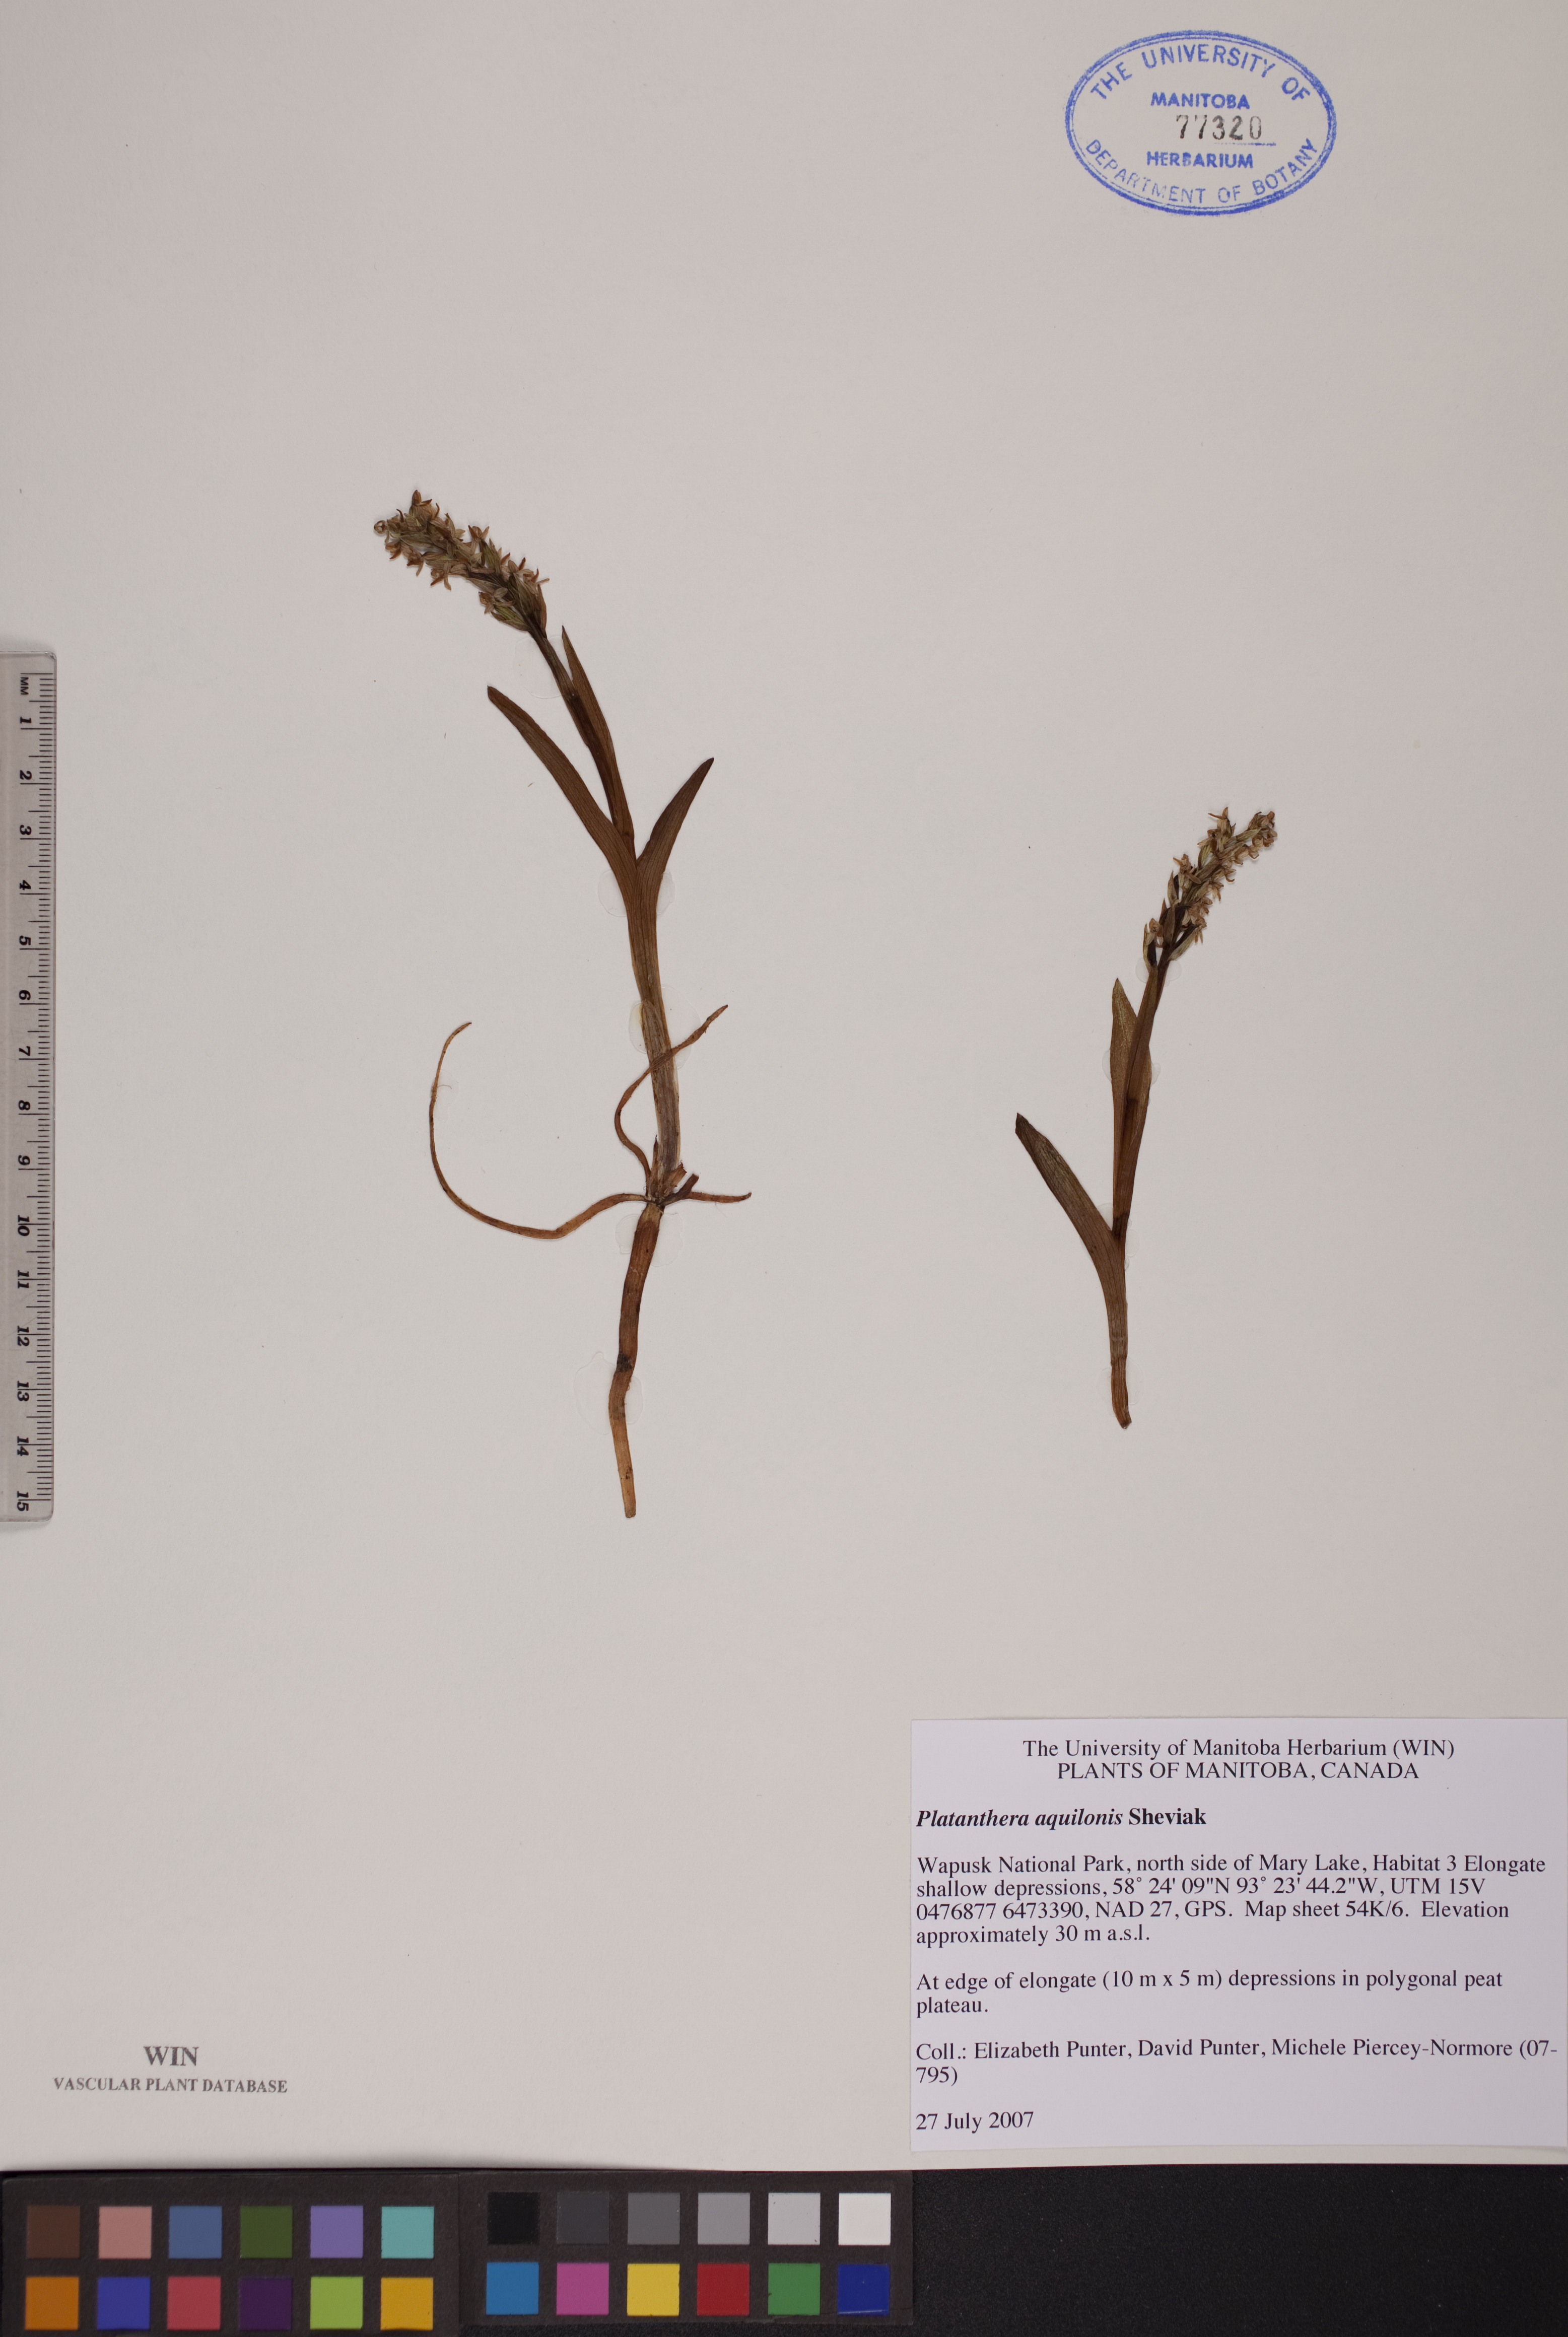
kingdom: Plantae
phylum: Tracheophyta
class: Liliopsida
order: Asparagales
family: Orchidaceae
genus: Platanthera
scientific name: Platanthera aquilonis
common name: Northern green orchid
